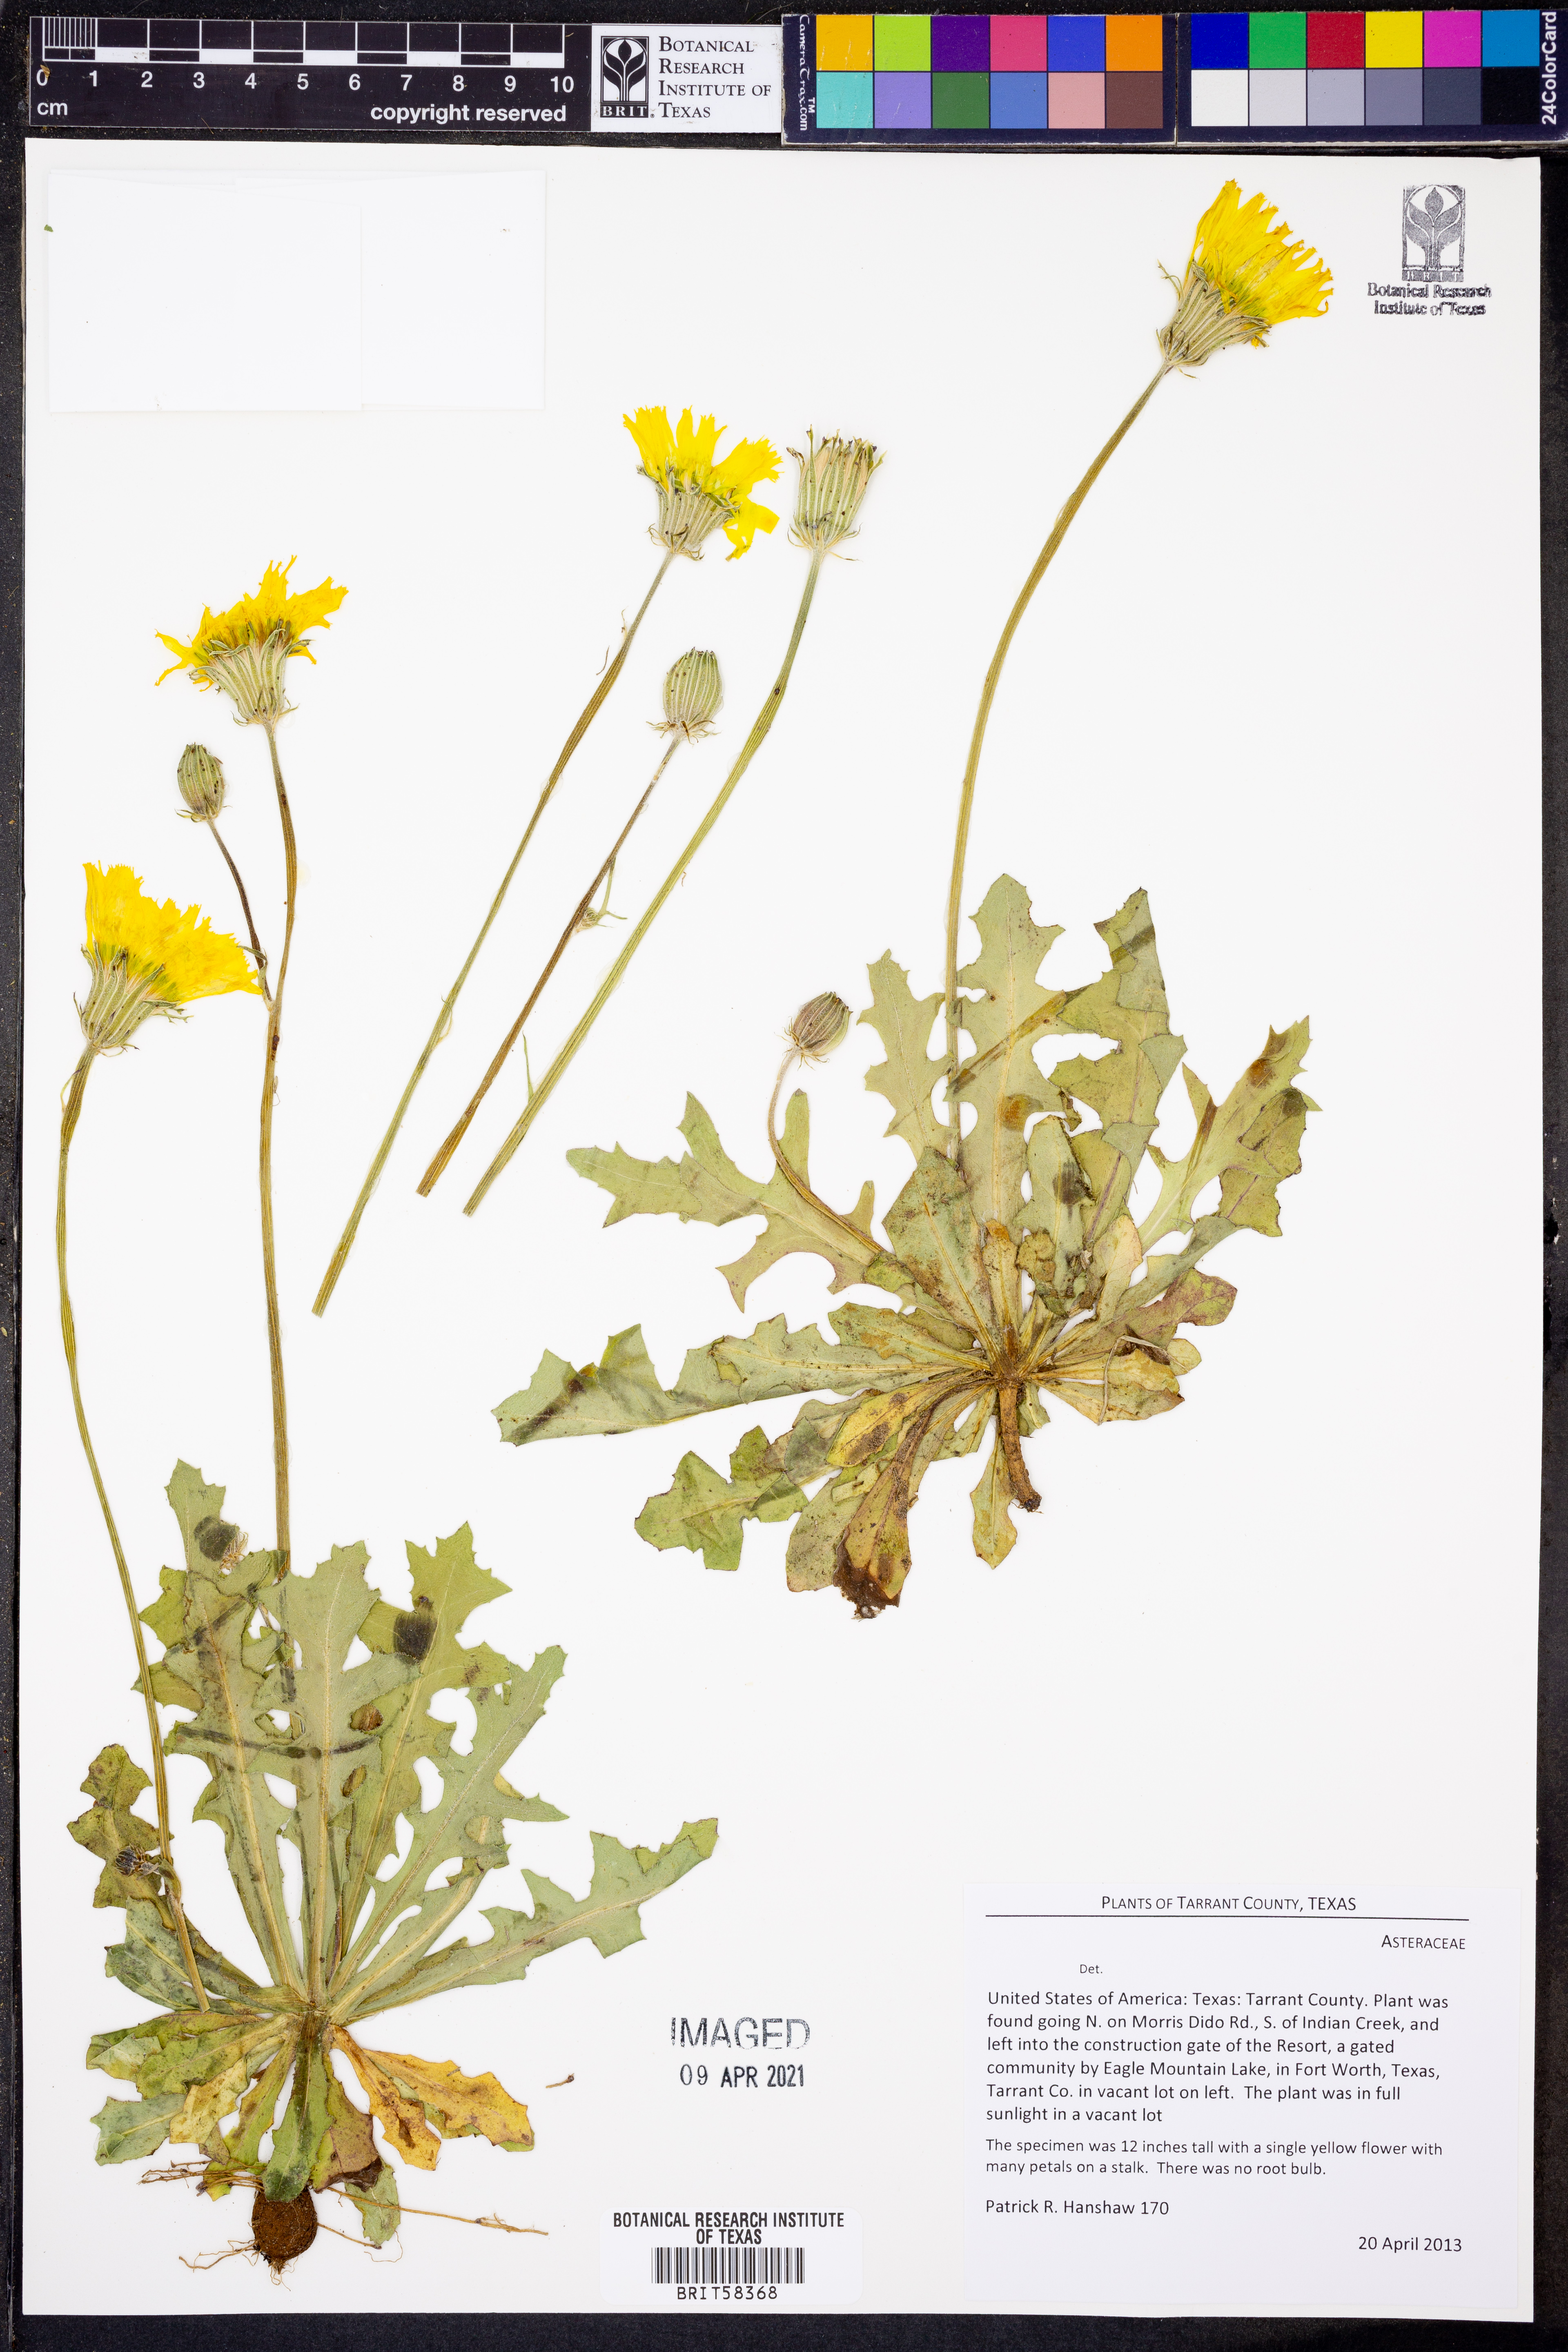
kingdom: Plantae
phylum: Tracheophyta
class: Magnoliopsida
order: Asterales
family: Asteraceae
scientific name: Asteraceae
